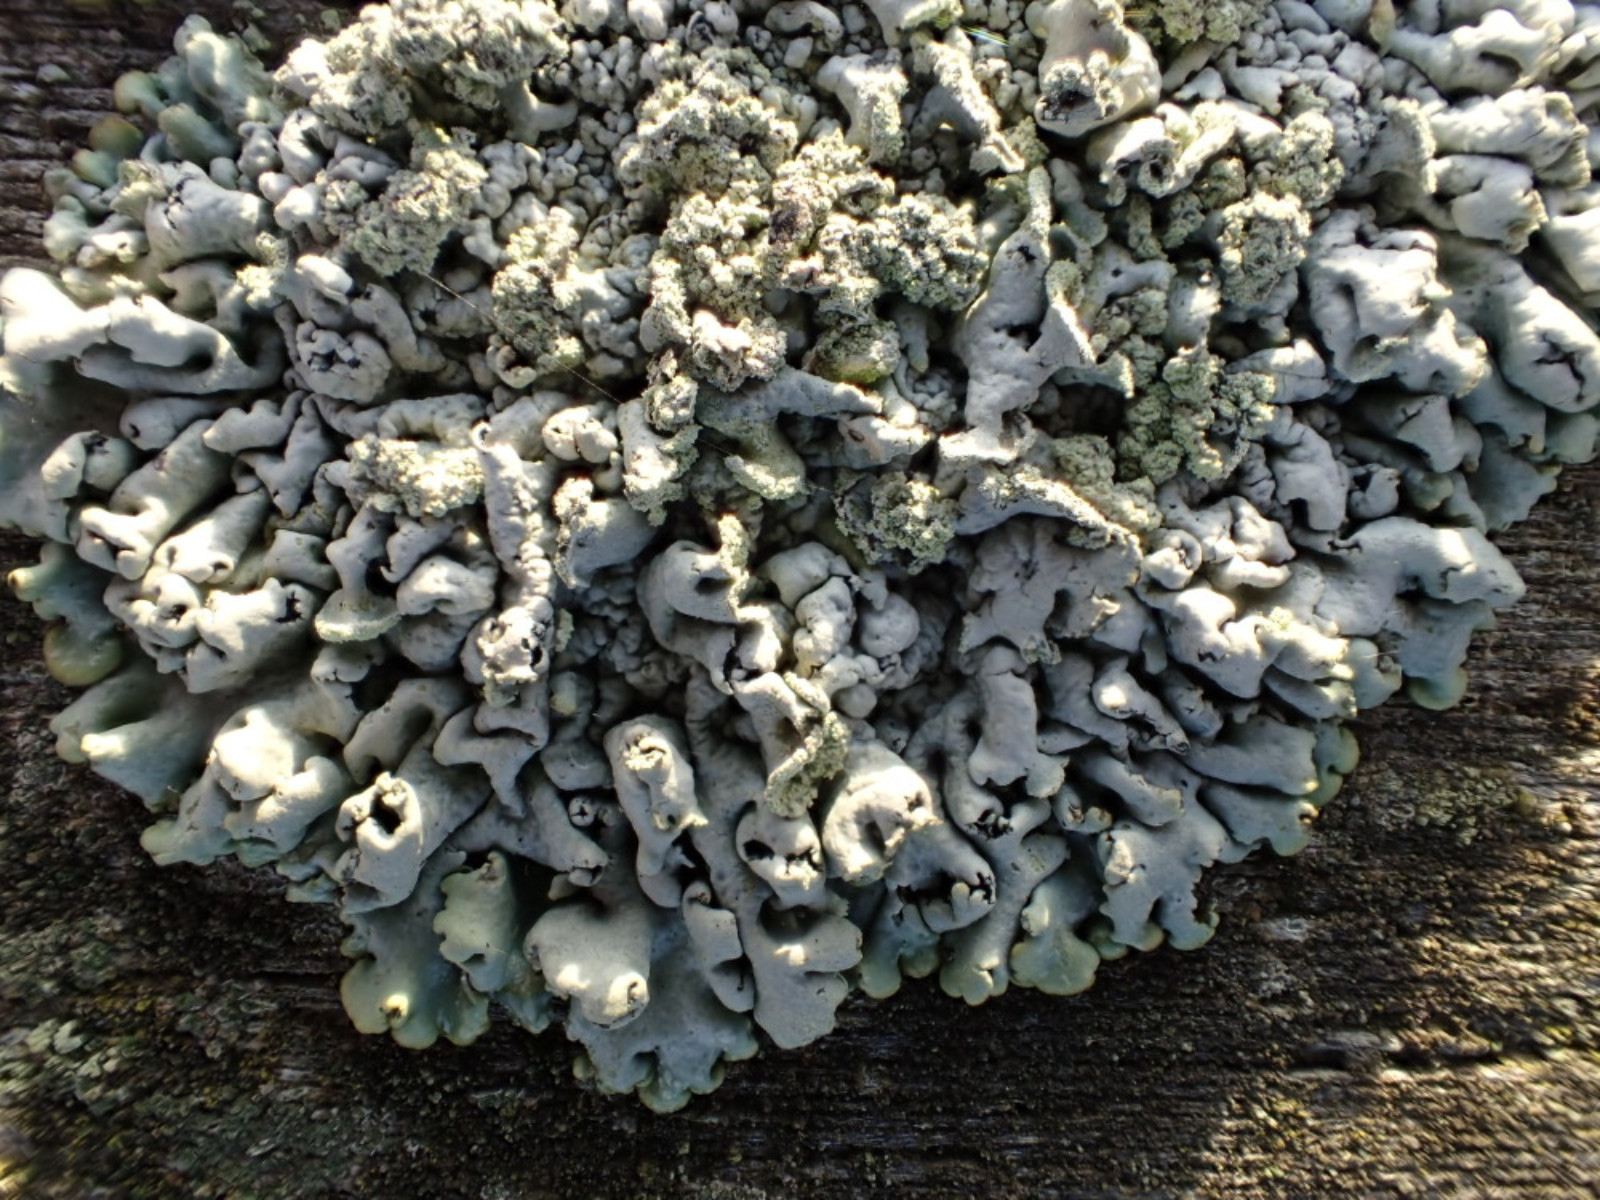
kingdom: Fungi
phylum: Ascomycota
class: Lecanoromycetes
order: Lecanorales
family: Parmeliaceae
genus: Hypogymnia
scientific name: Hypogymnia physodes
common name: almindelig kvistlav
